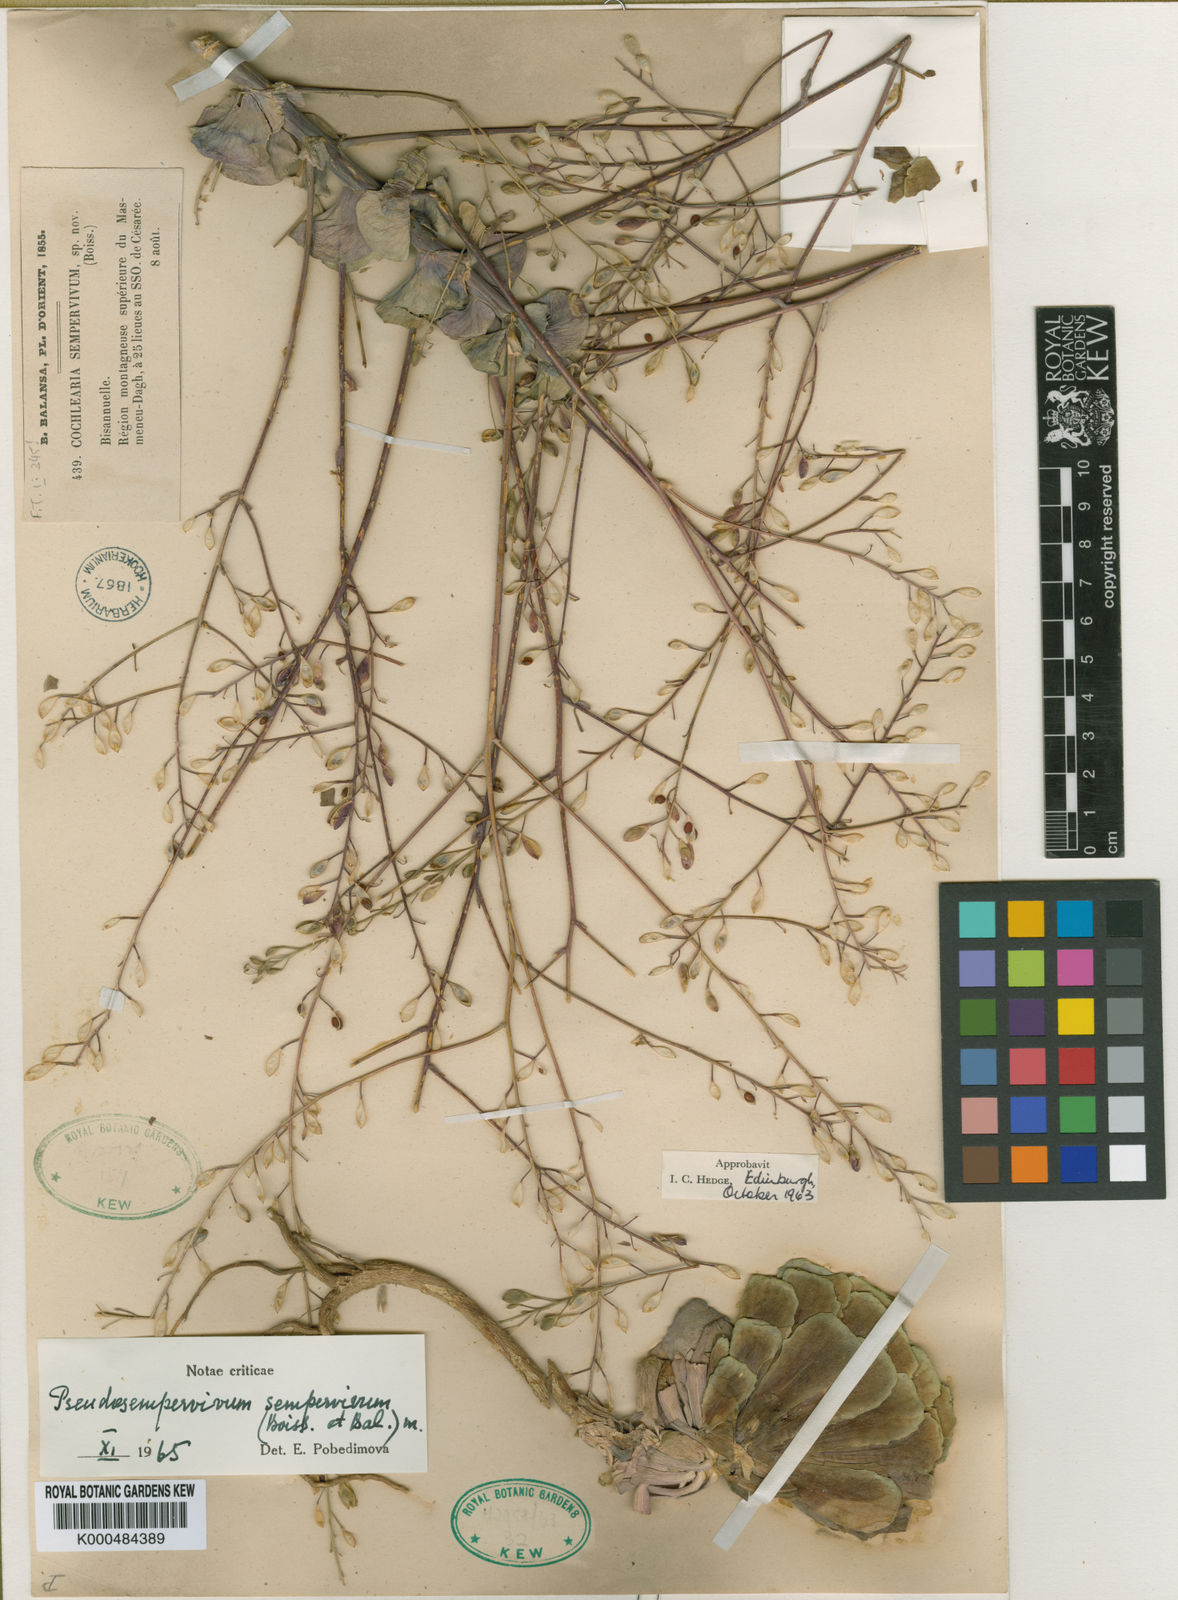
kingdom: Plantae
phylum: Tracheophyta
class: Magnoliopsida
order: Brassicales
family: Brassicaceae
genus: Pseudosempervivum
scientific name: Pseudosempervivum sempervivum
